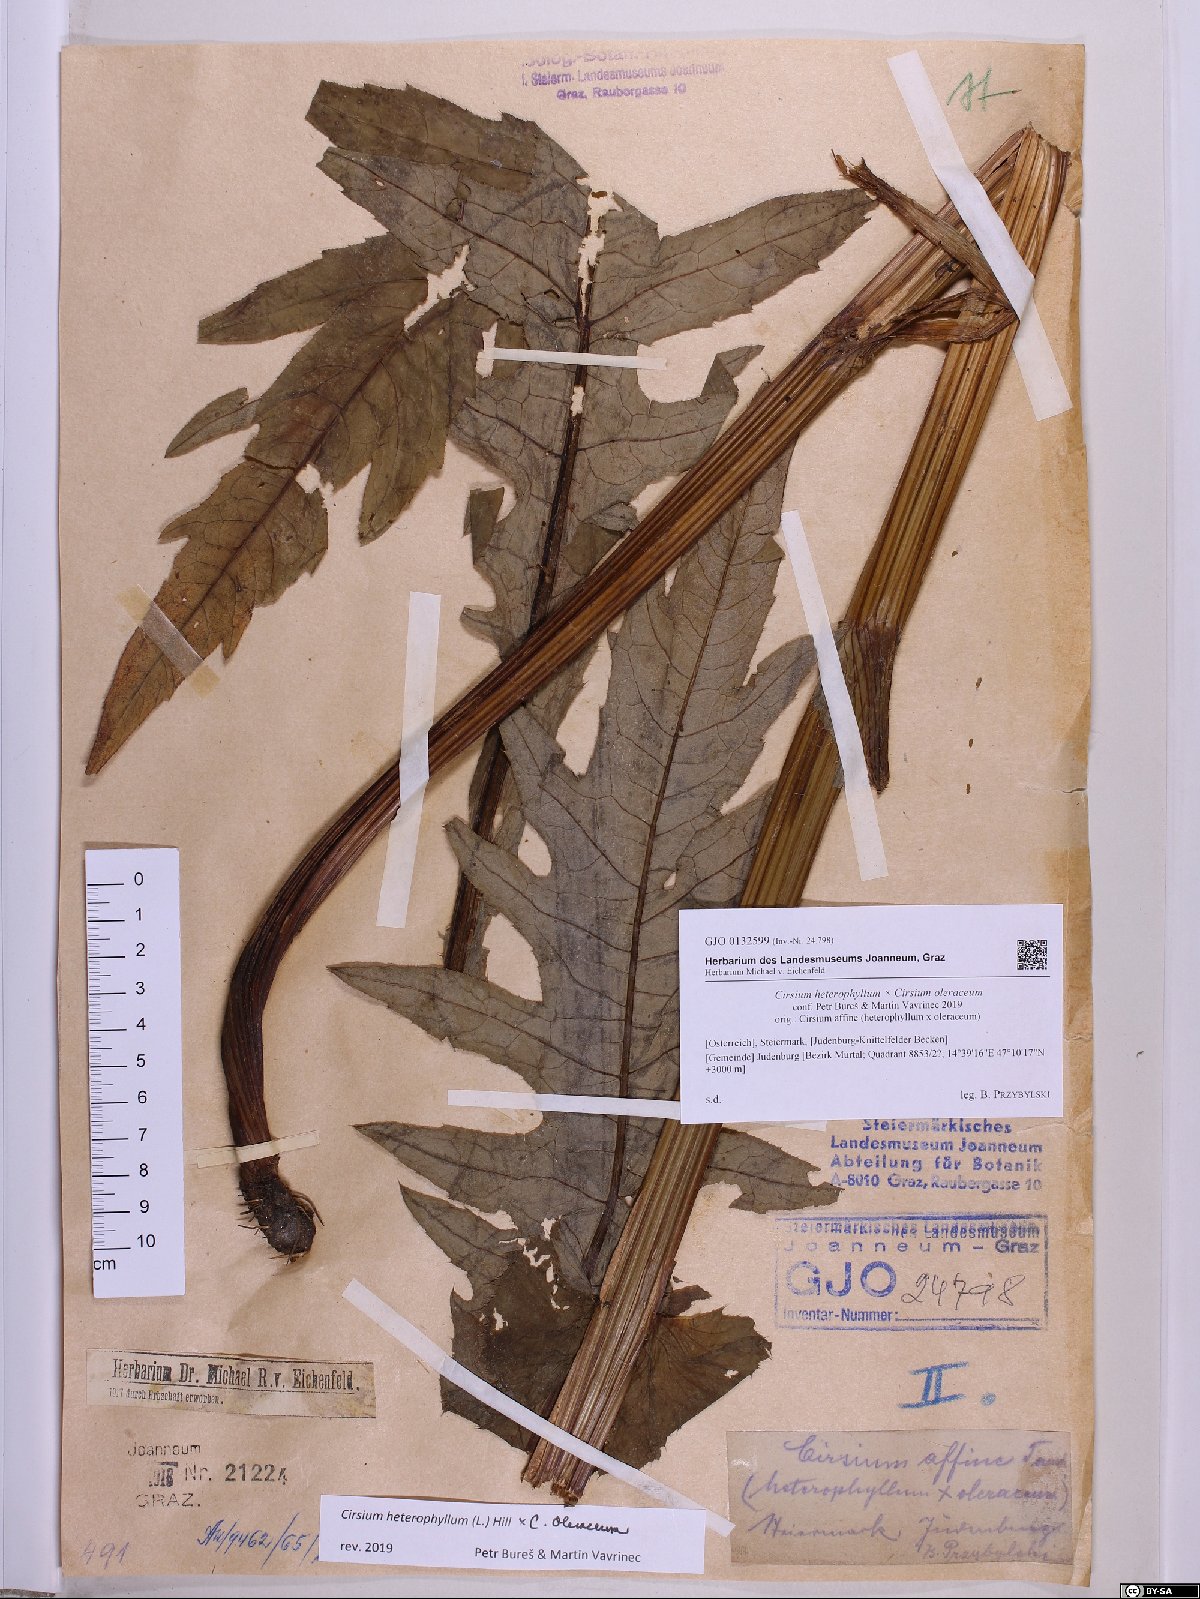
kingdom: Plantae
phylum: Tracheophyta
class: Magnoliopsida
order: Asterales
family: Asteraceae
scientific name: Asteraceae
